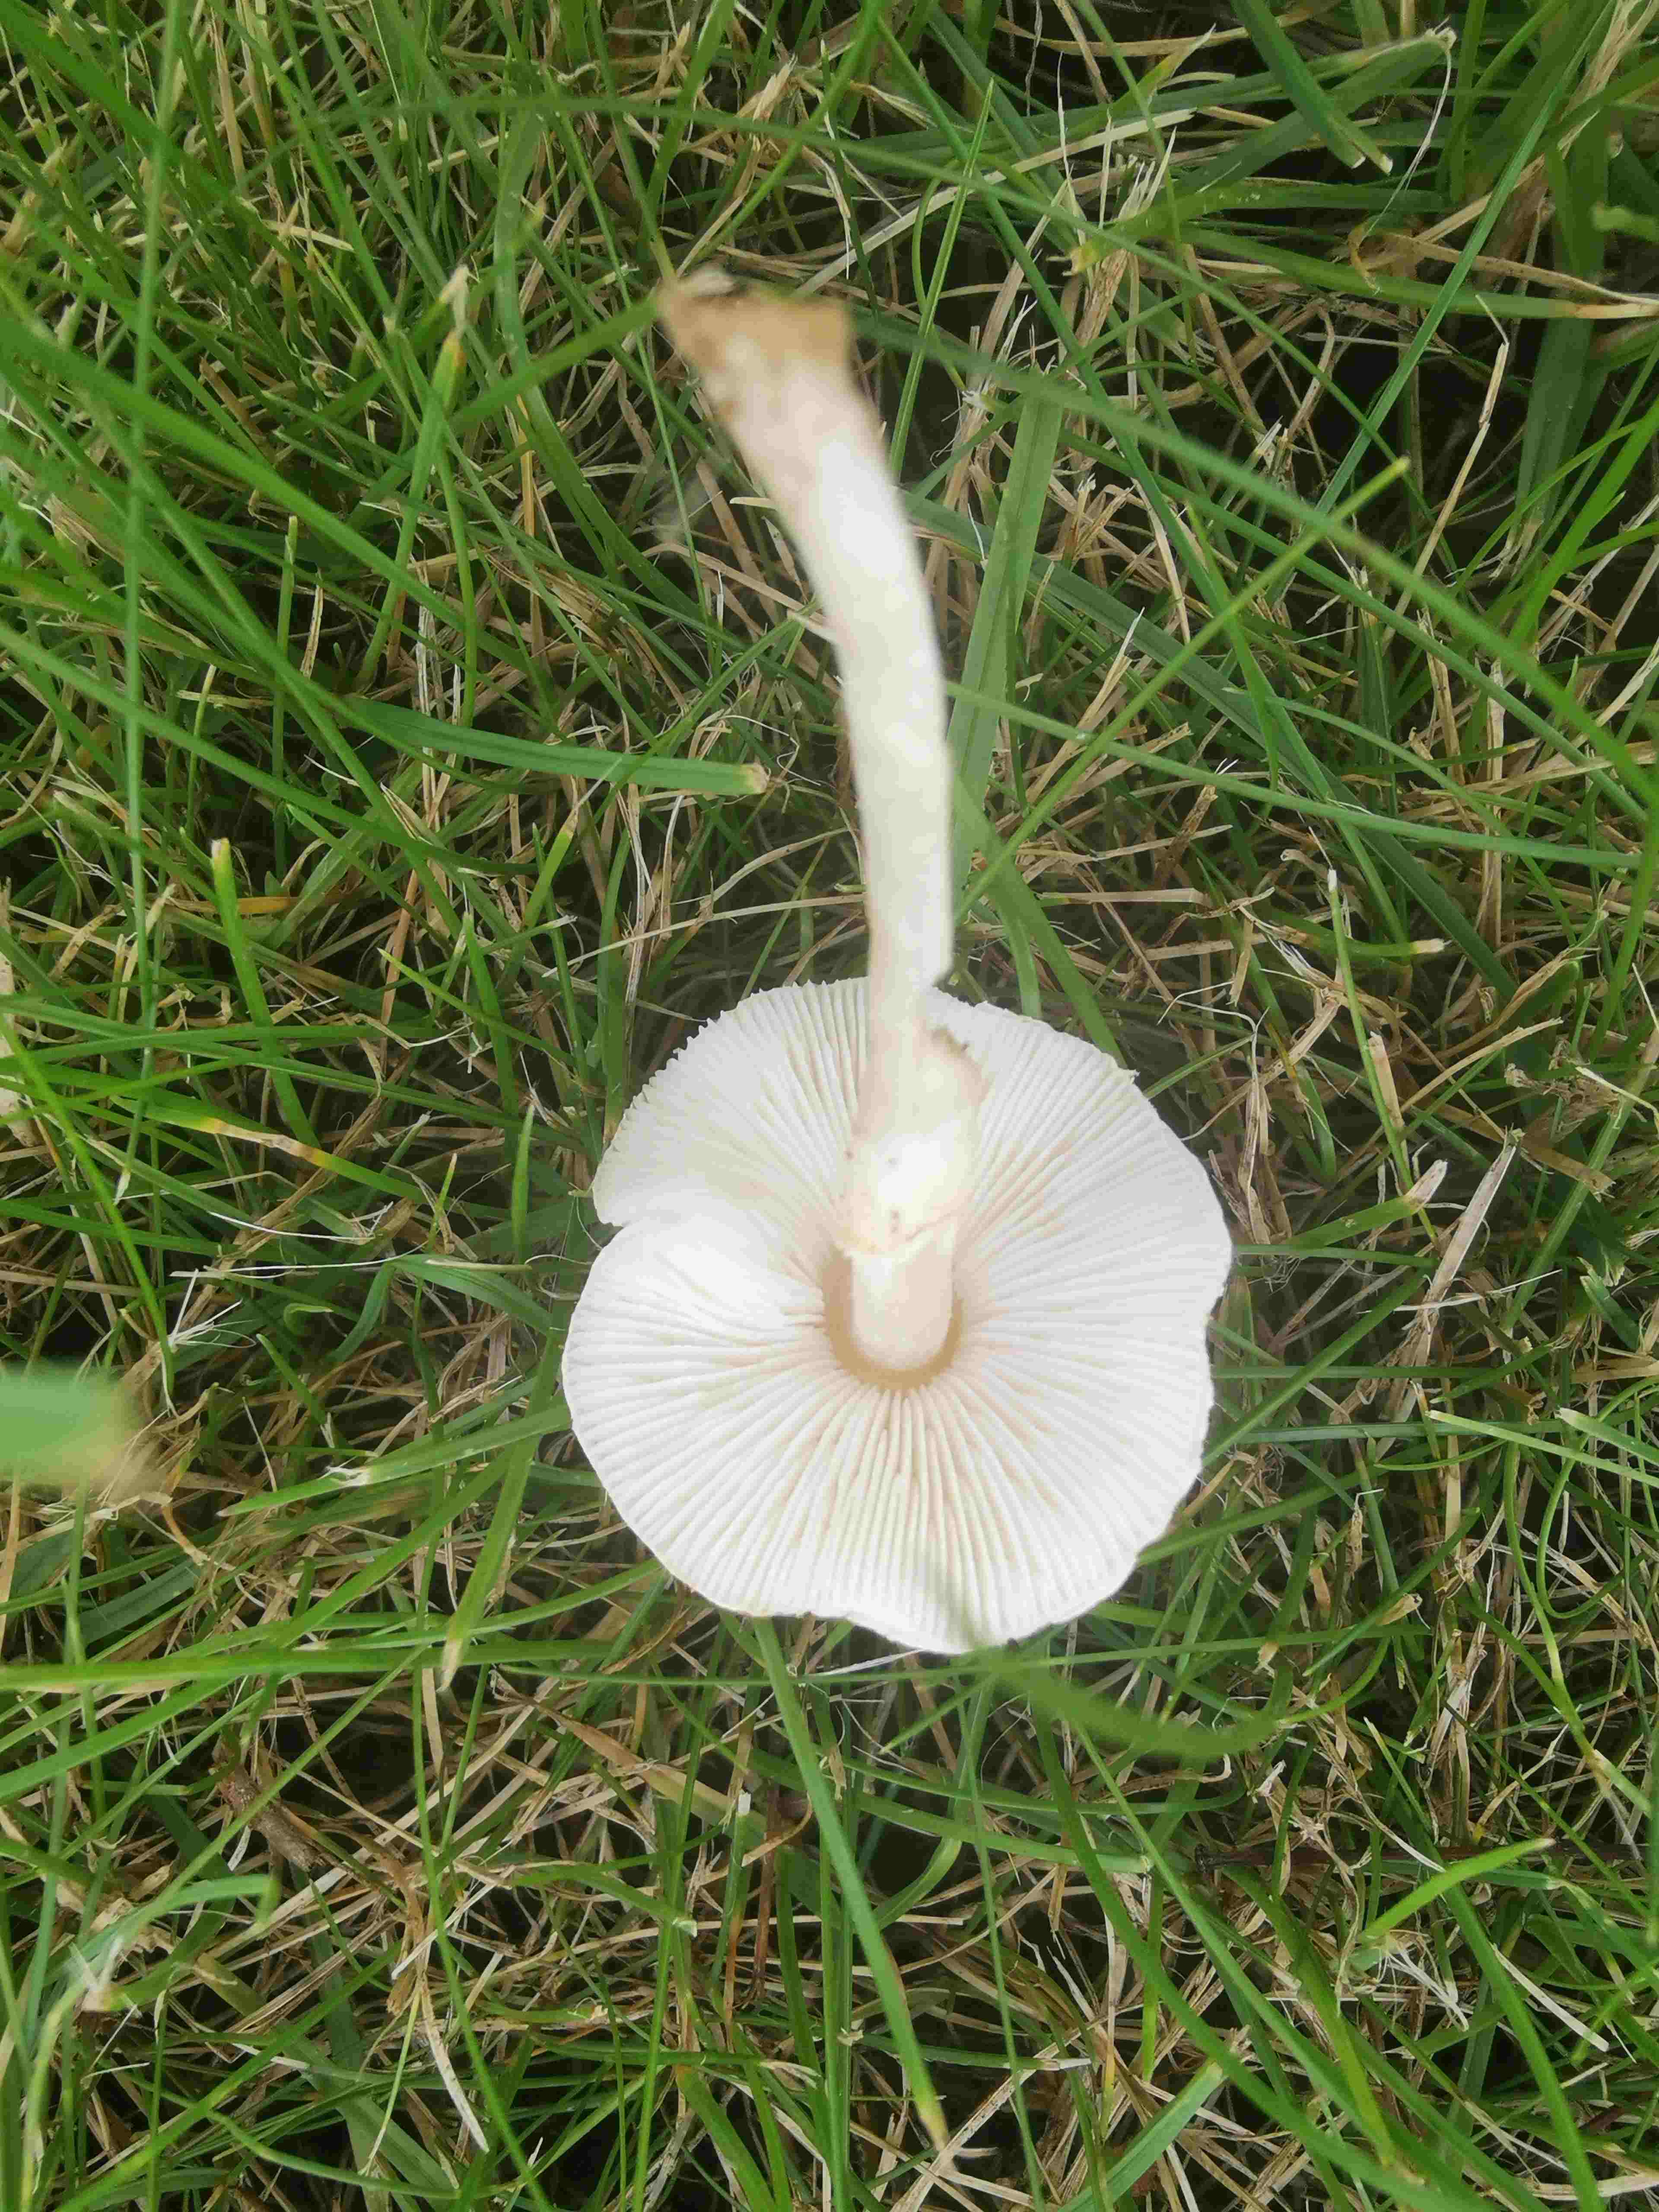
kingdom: Fungi
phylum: Basidiomycota
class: Agaricomycetes
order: Agaricales
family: Agaricaceae
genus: Lepiota
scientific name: Lepiota
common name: parasolhat
